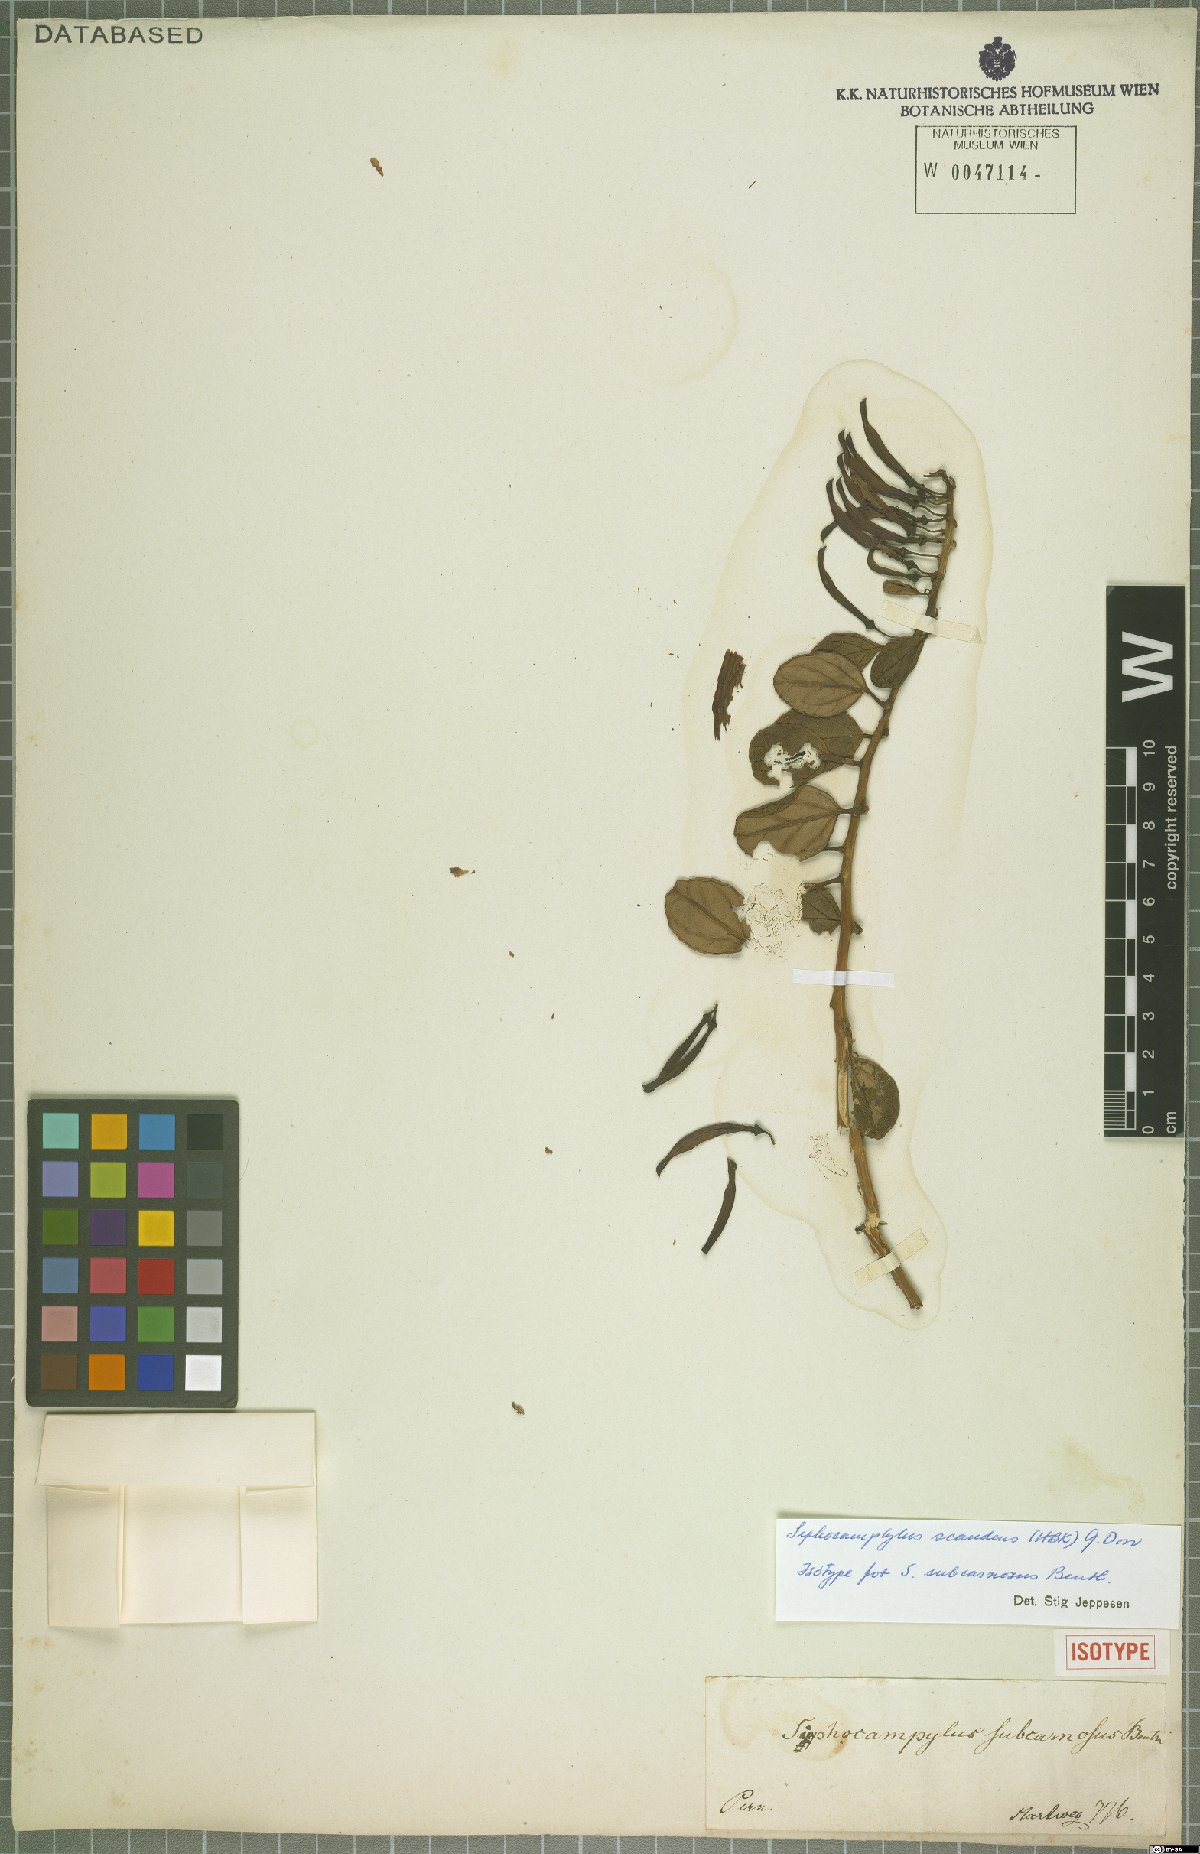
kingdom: Plantae
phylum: Tracheophyta
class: Magnoliopsida
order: Asterales
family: Campanulaceae
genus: Siphocampylus
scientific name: Siphocampylus scandens
